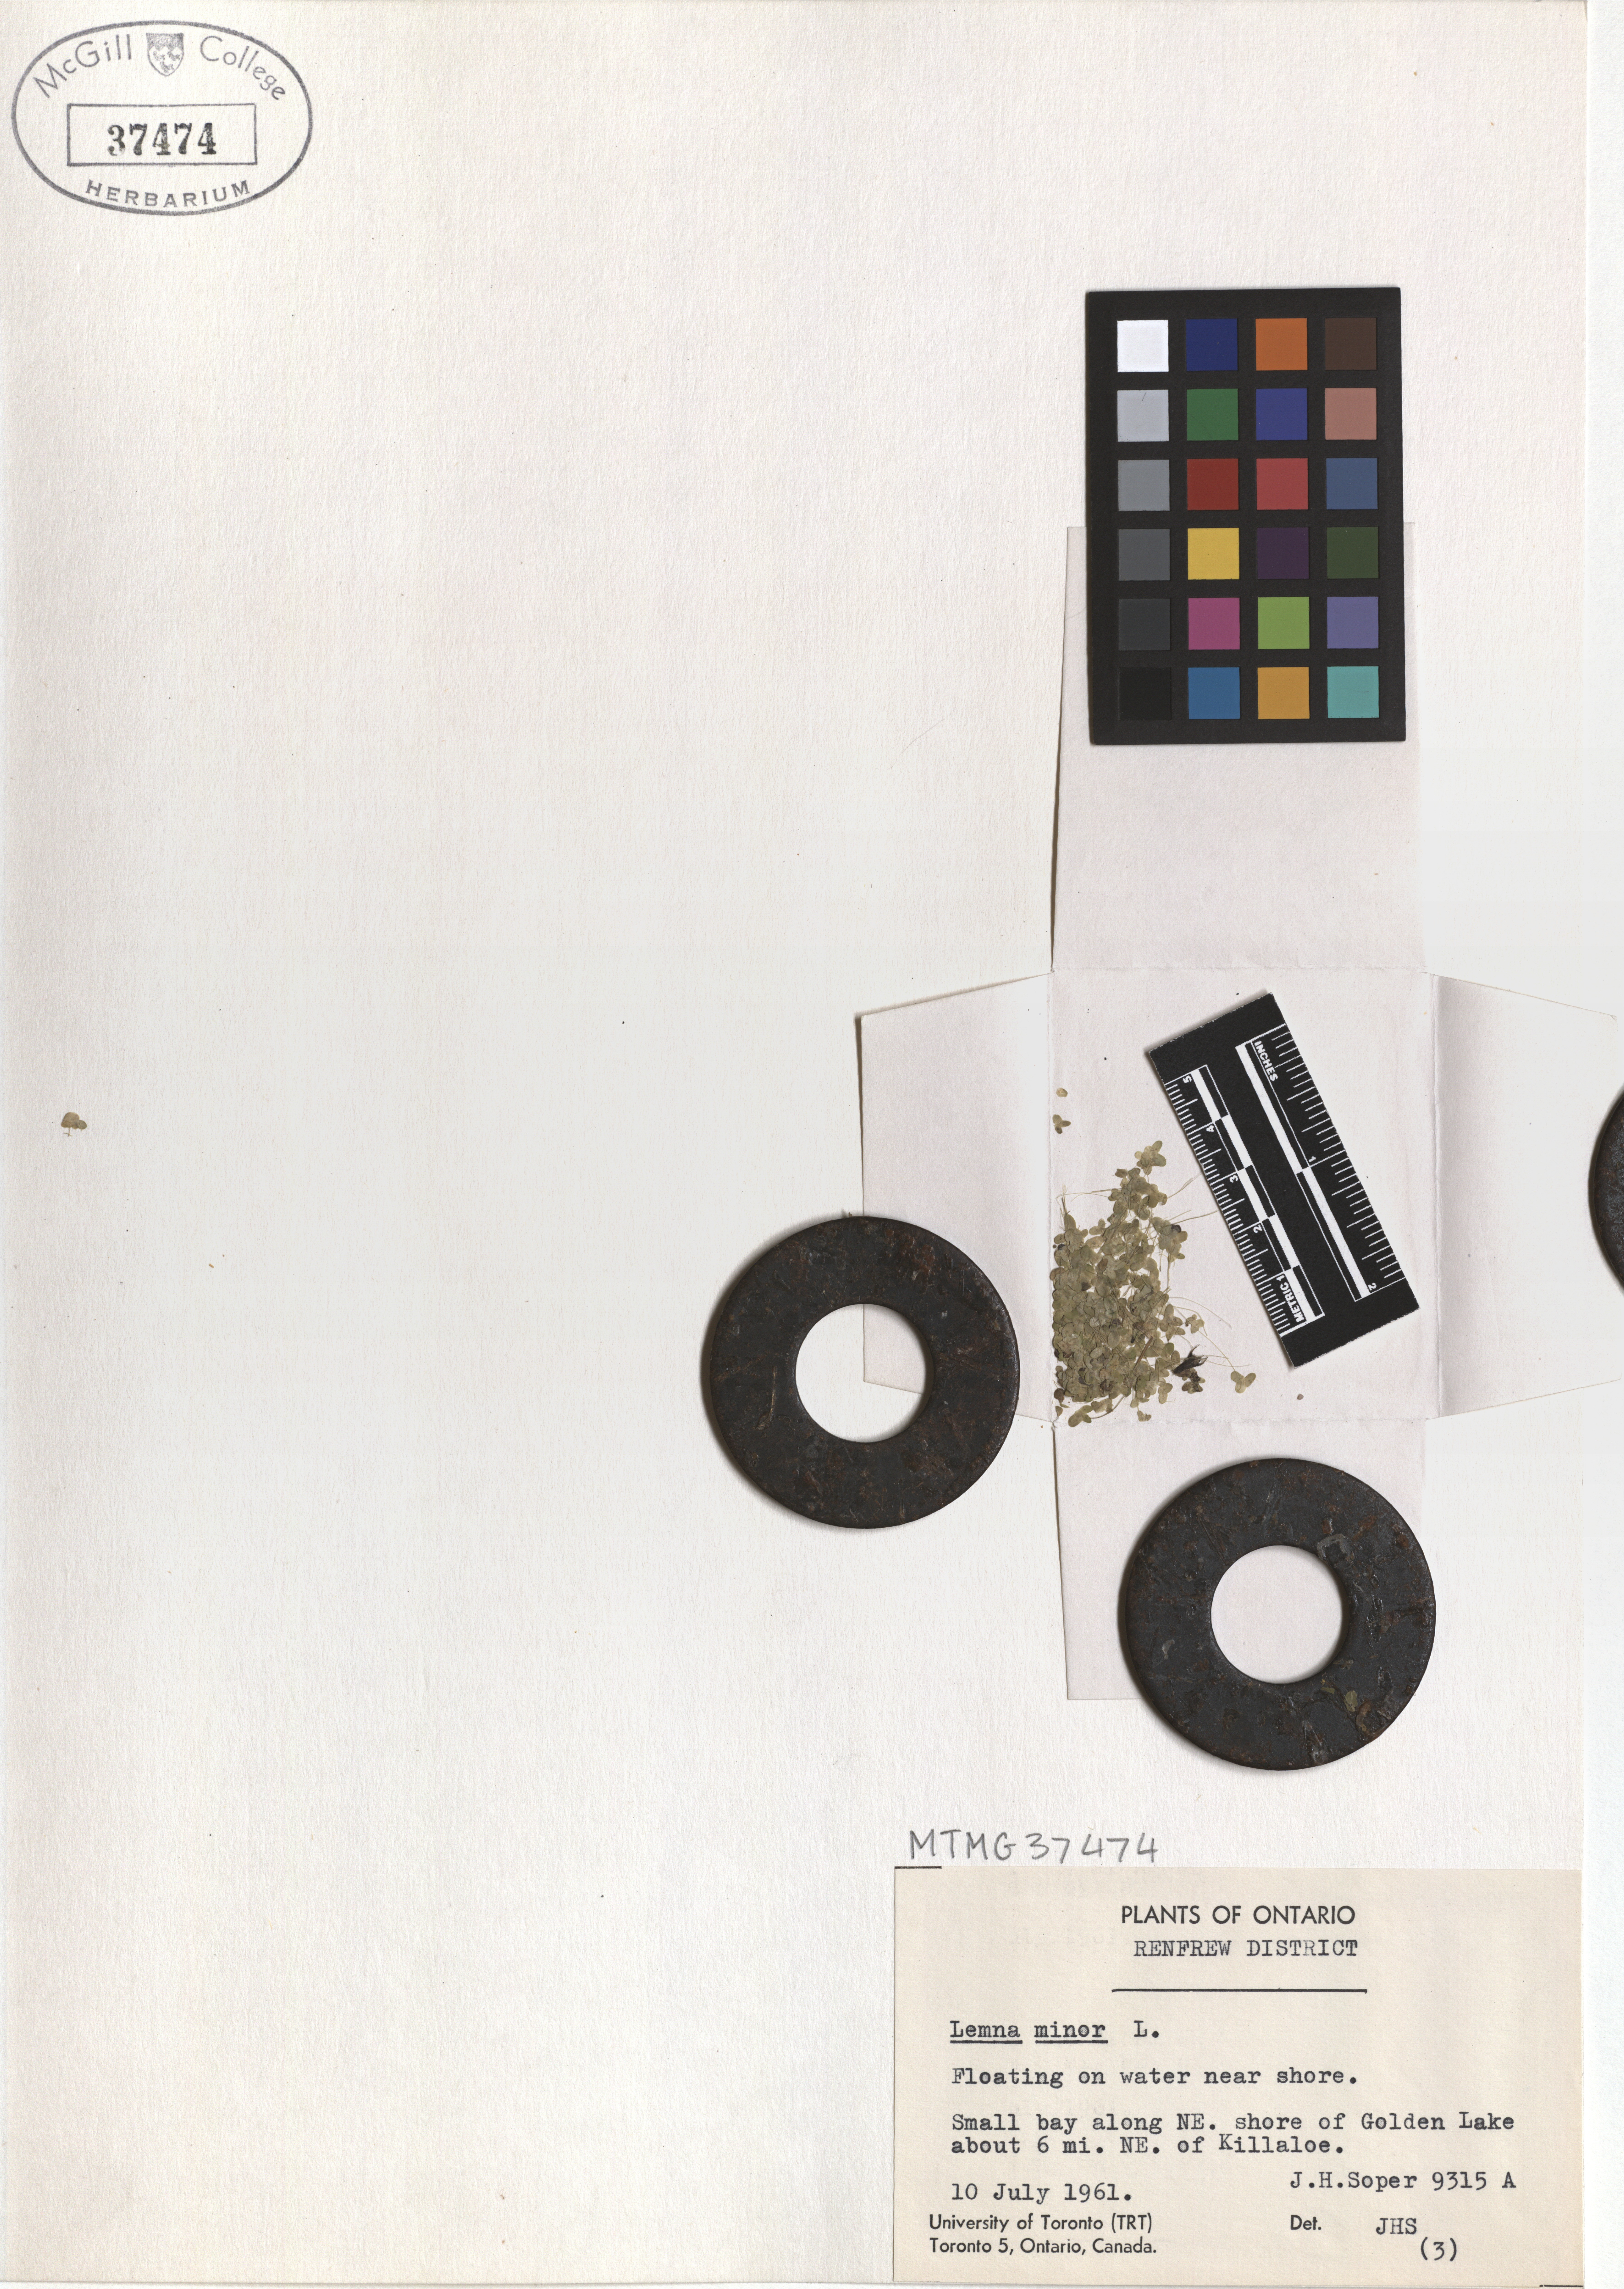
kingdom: Plantae
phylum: Tracheophyta
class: Liliopsida
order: Alismatales
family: Araceae
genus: Lemna
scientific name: Lemna minor
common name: Common duckweed
